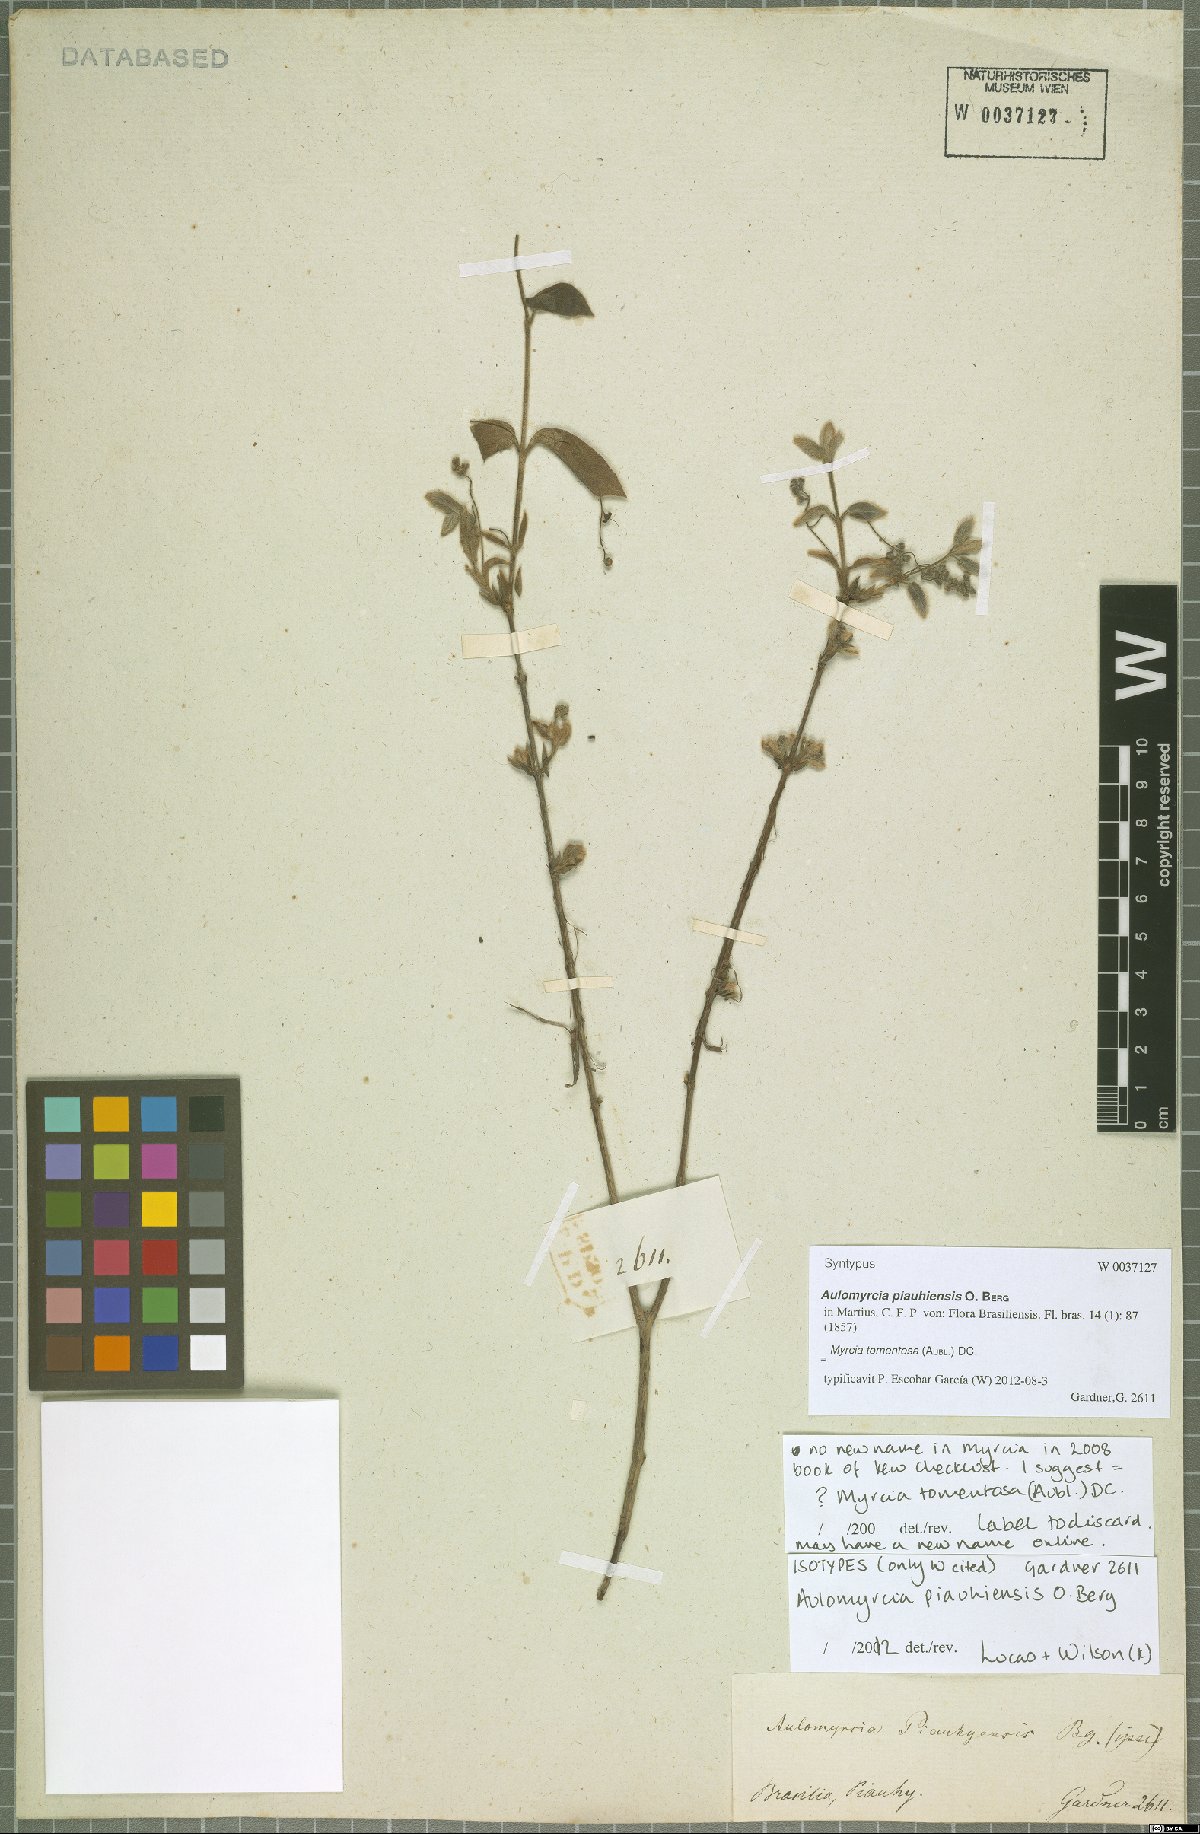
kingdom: Plantae
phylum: Tracheophyta
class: Magnoliopsida
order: Myrtales
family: Myrtaceae
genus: Myrcia
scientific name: Myrcia tomentosa
